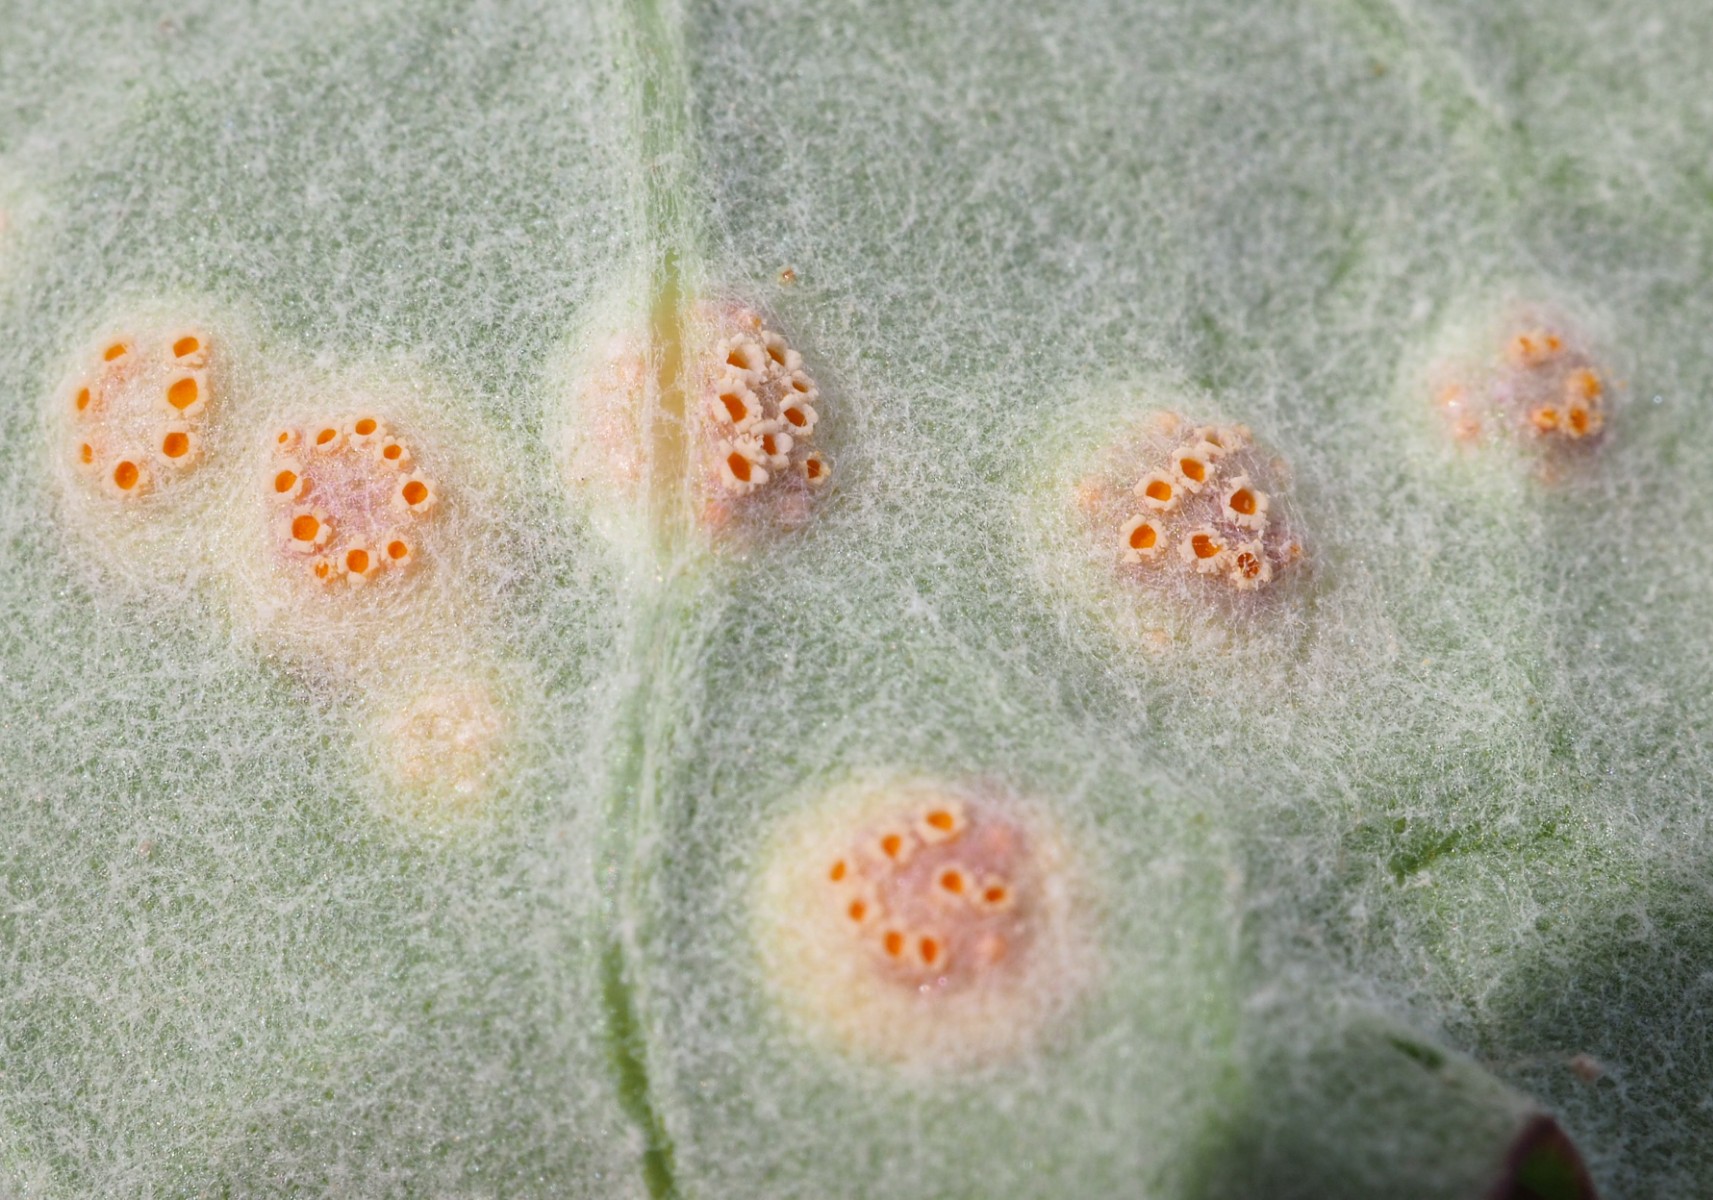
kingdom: Fungi
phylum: Basidiomycota
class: Pucciniomycetes
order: Pucciniales
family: Pucciniaceae
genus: Puccinia
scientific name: Puccinia poarum
